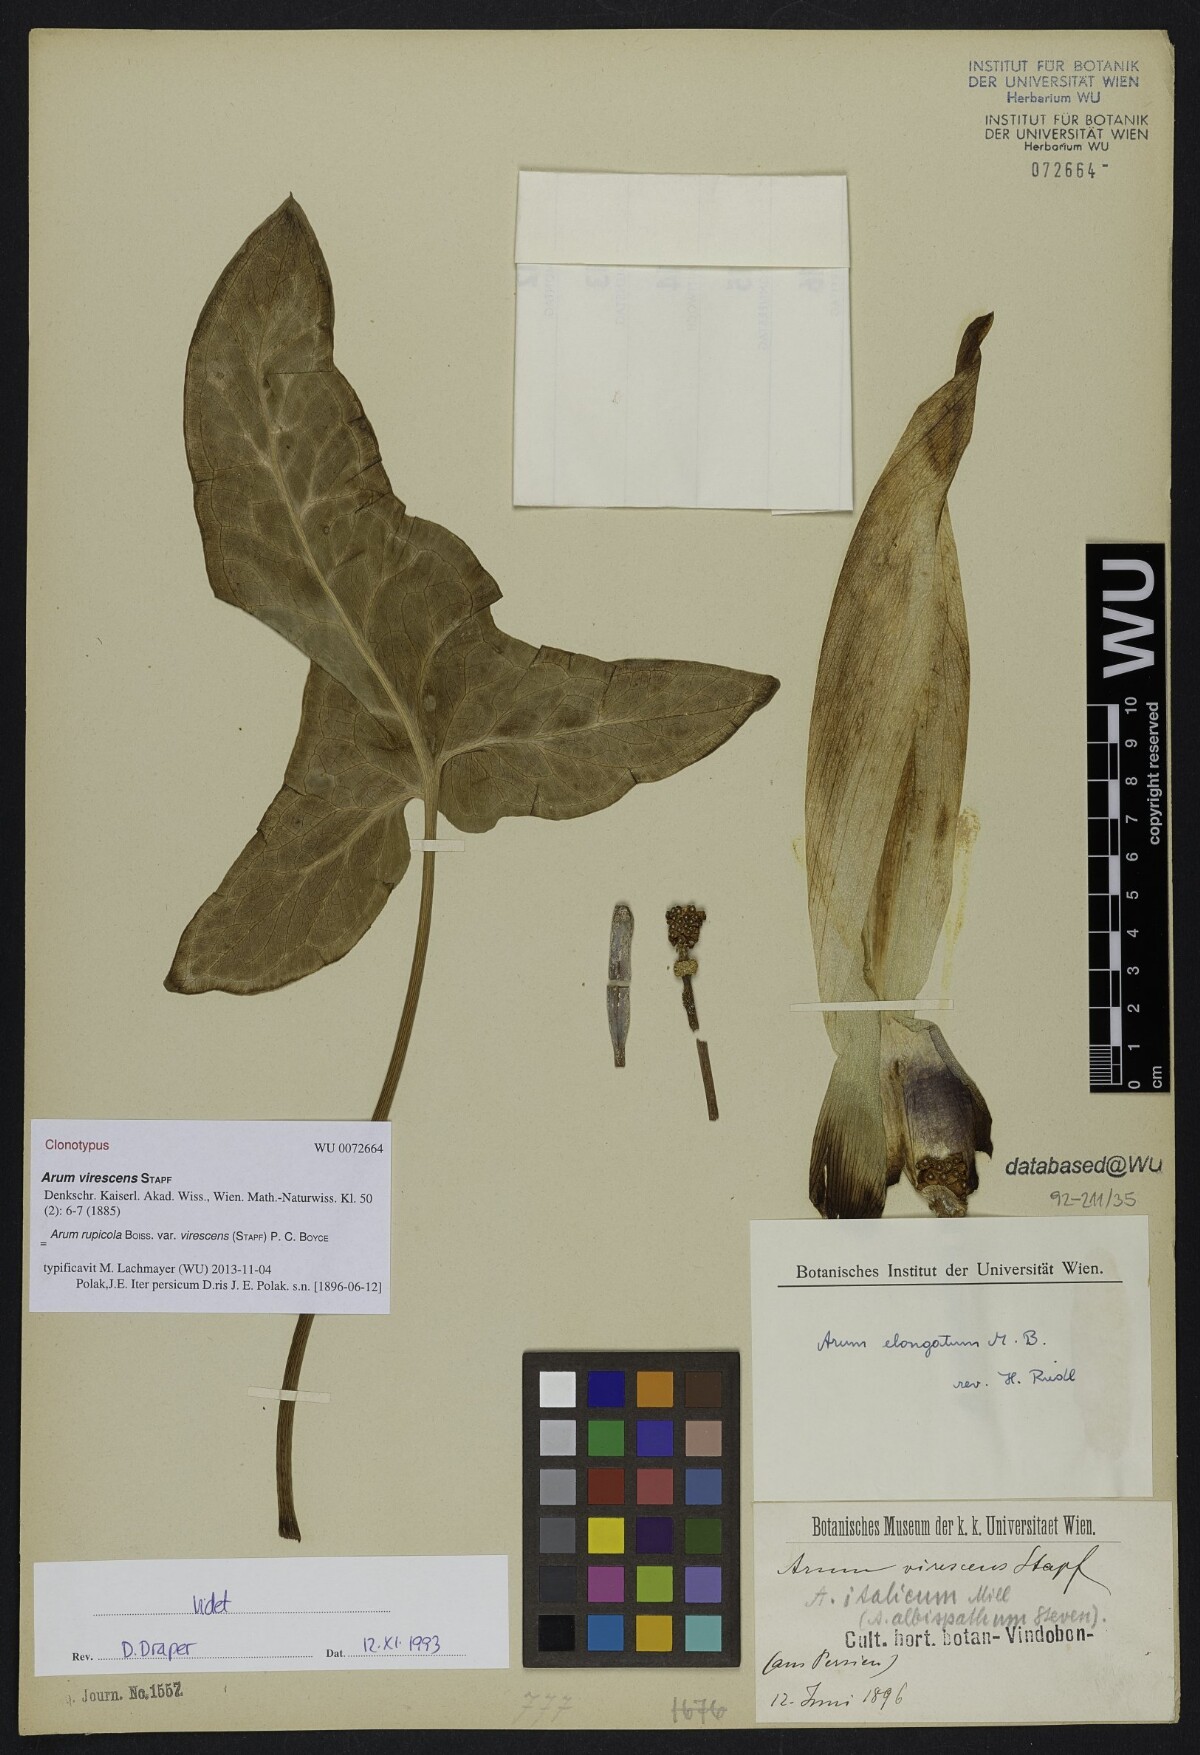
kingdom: Plantae
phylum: Tracheophyta
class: Liliopsida
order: Alismatales
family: Araceae
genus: Arum
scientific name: Arum rupicola
